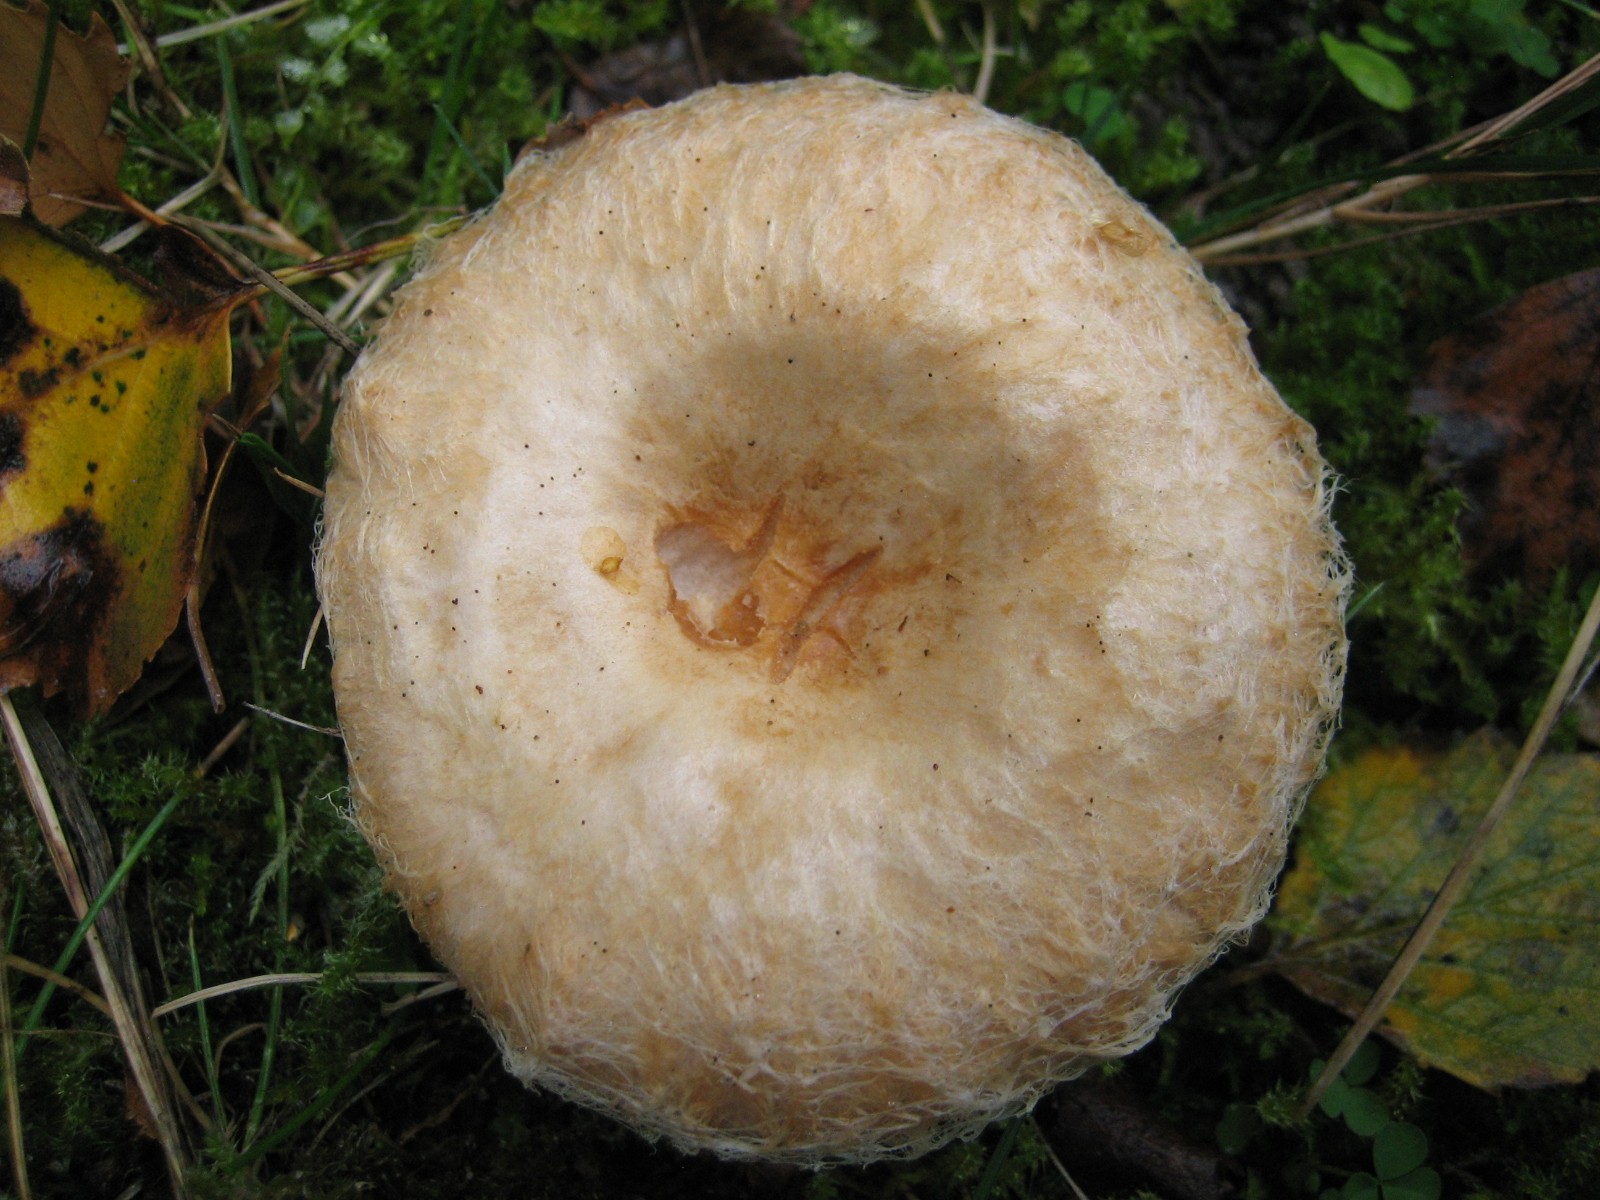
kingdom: Fungi
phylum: Basidiomycota
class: Agaricomycetes
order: Russulales
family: Russulaceae
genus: Lactarius
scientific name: Lactarius pubescens
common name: dunet mælkehat
